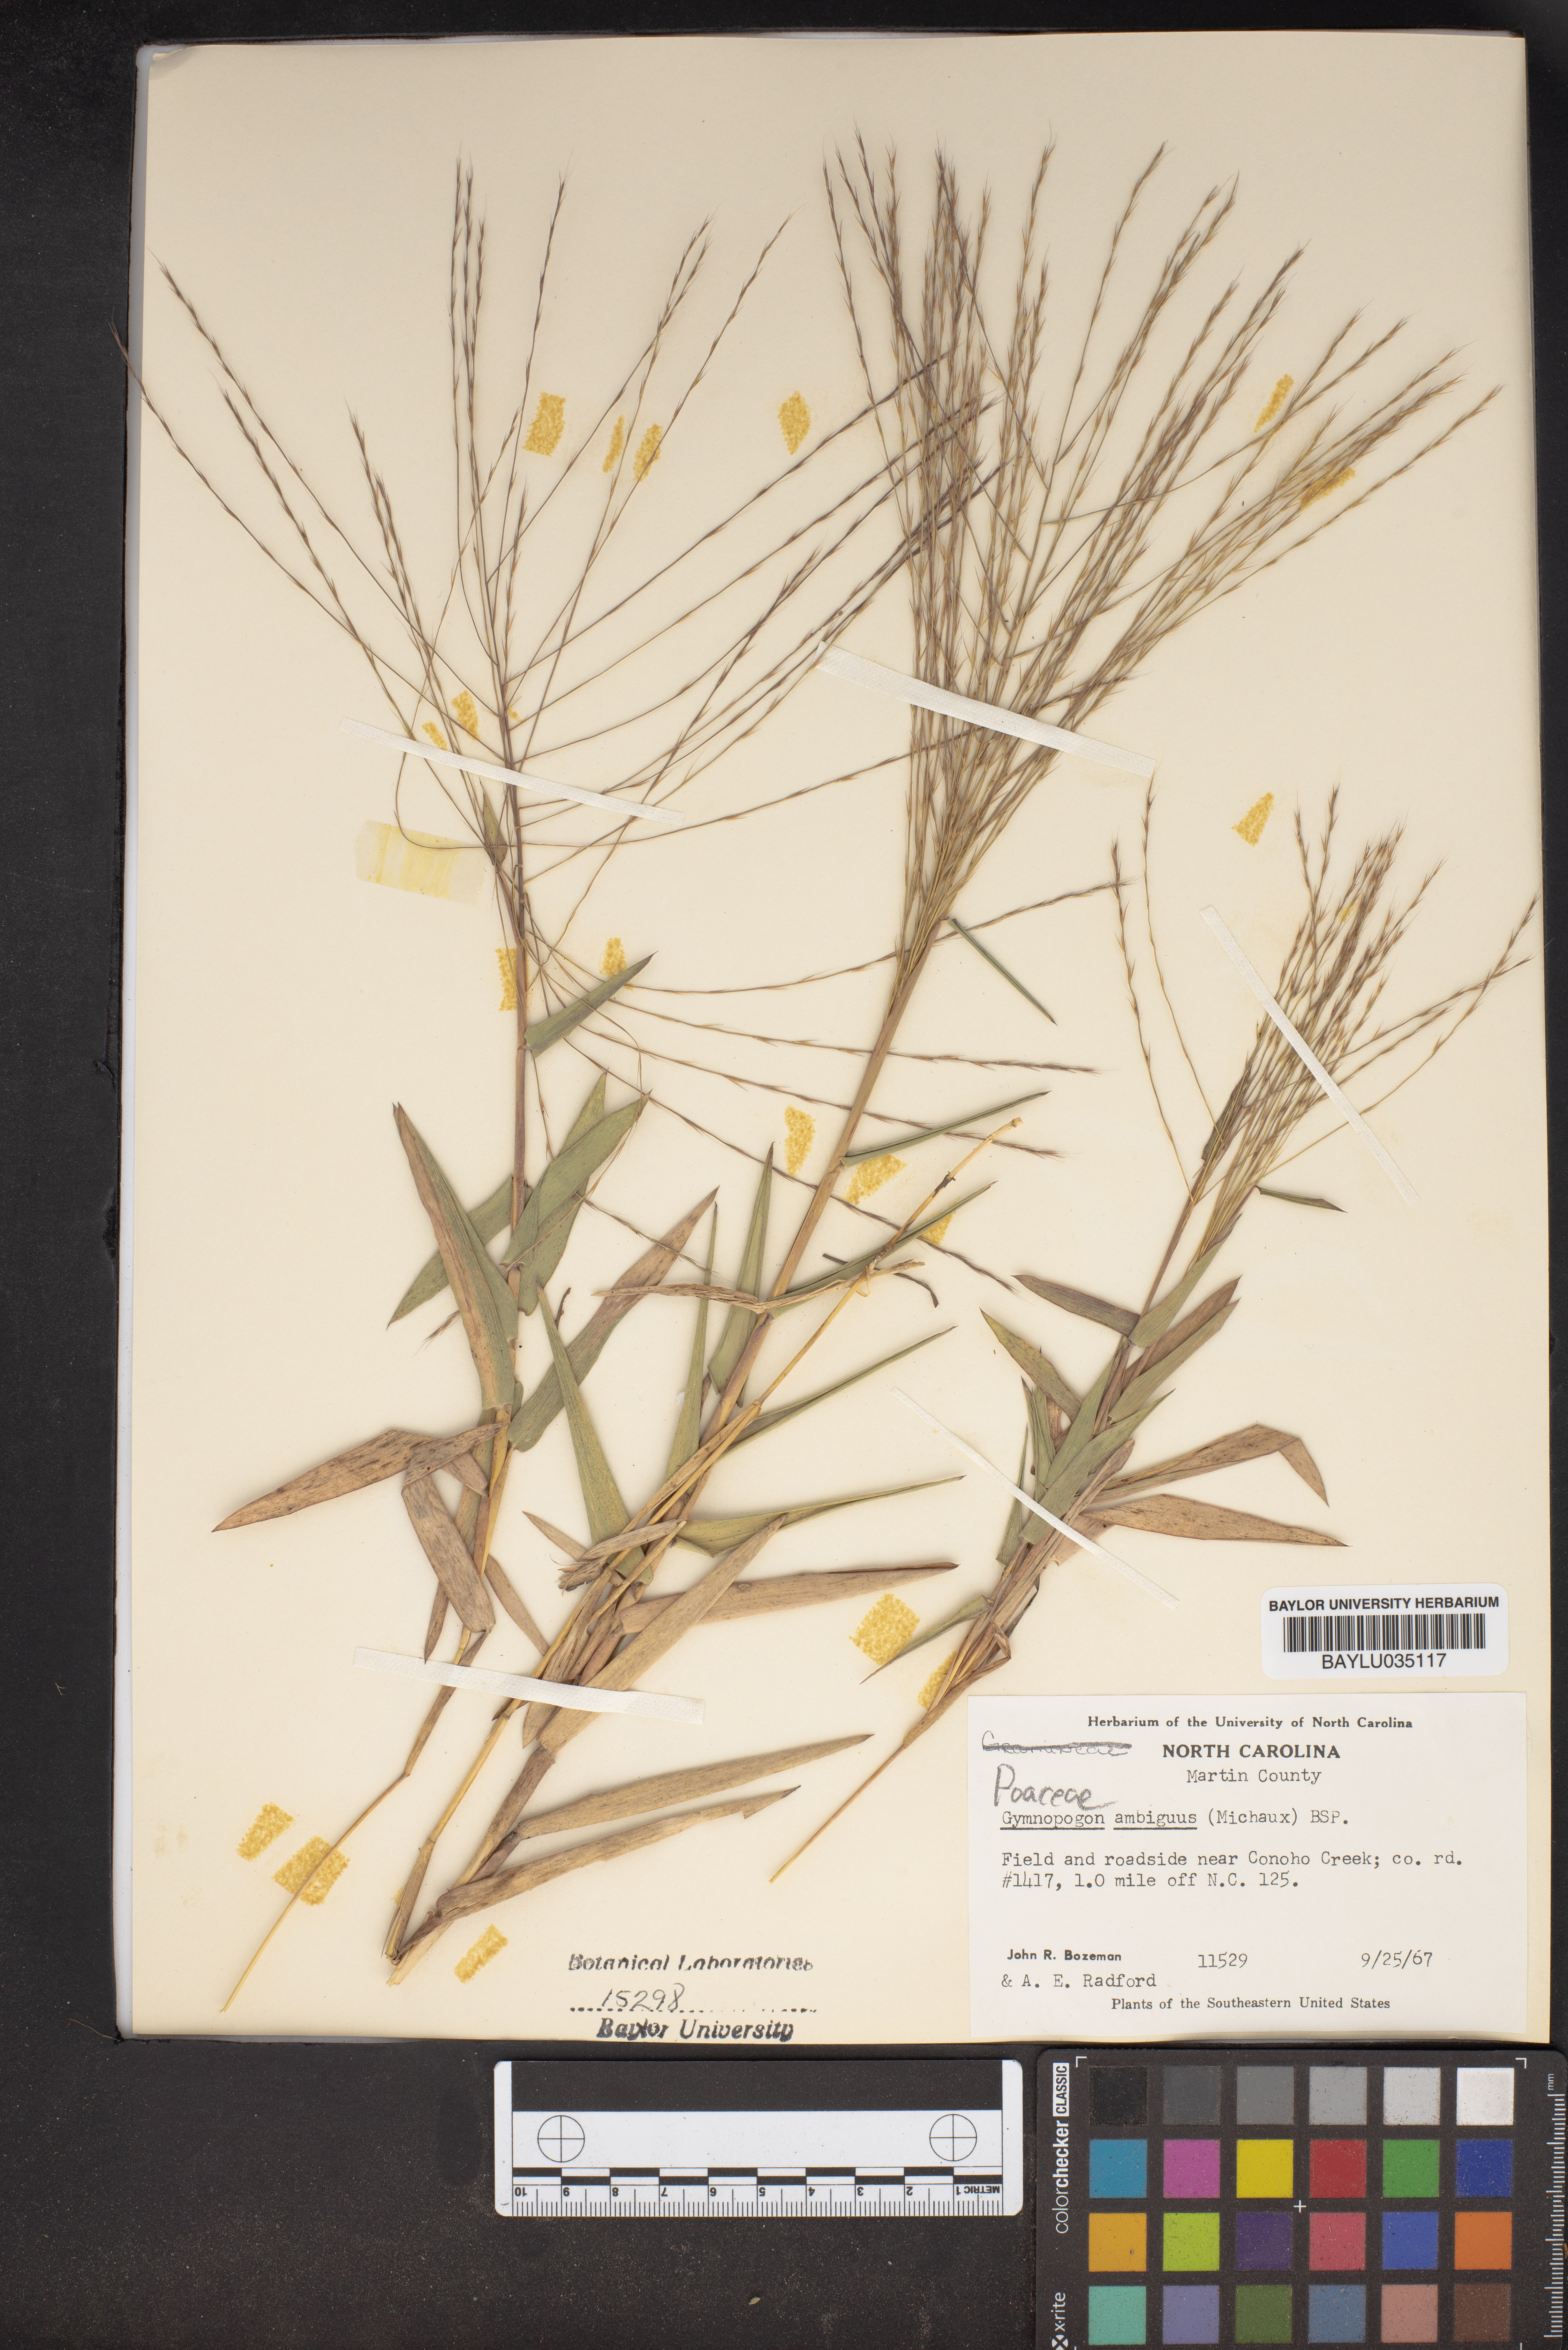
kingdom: Plantae
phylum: Tracheophyta
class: Liliopsida
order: Poales
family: Poaceae
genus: Gymnopogon
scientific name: Gymnopogon ambiguus
